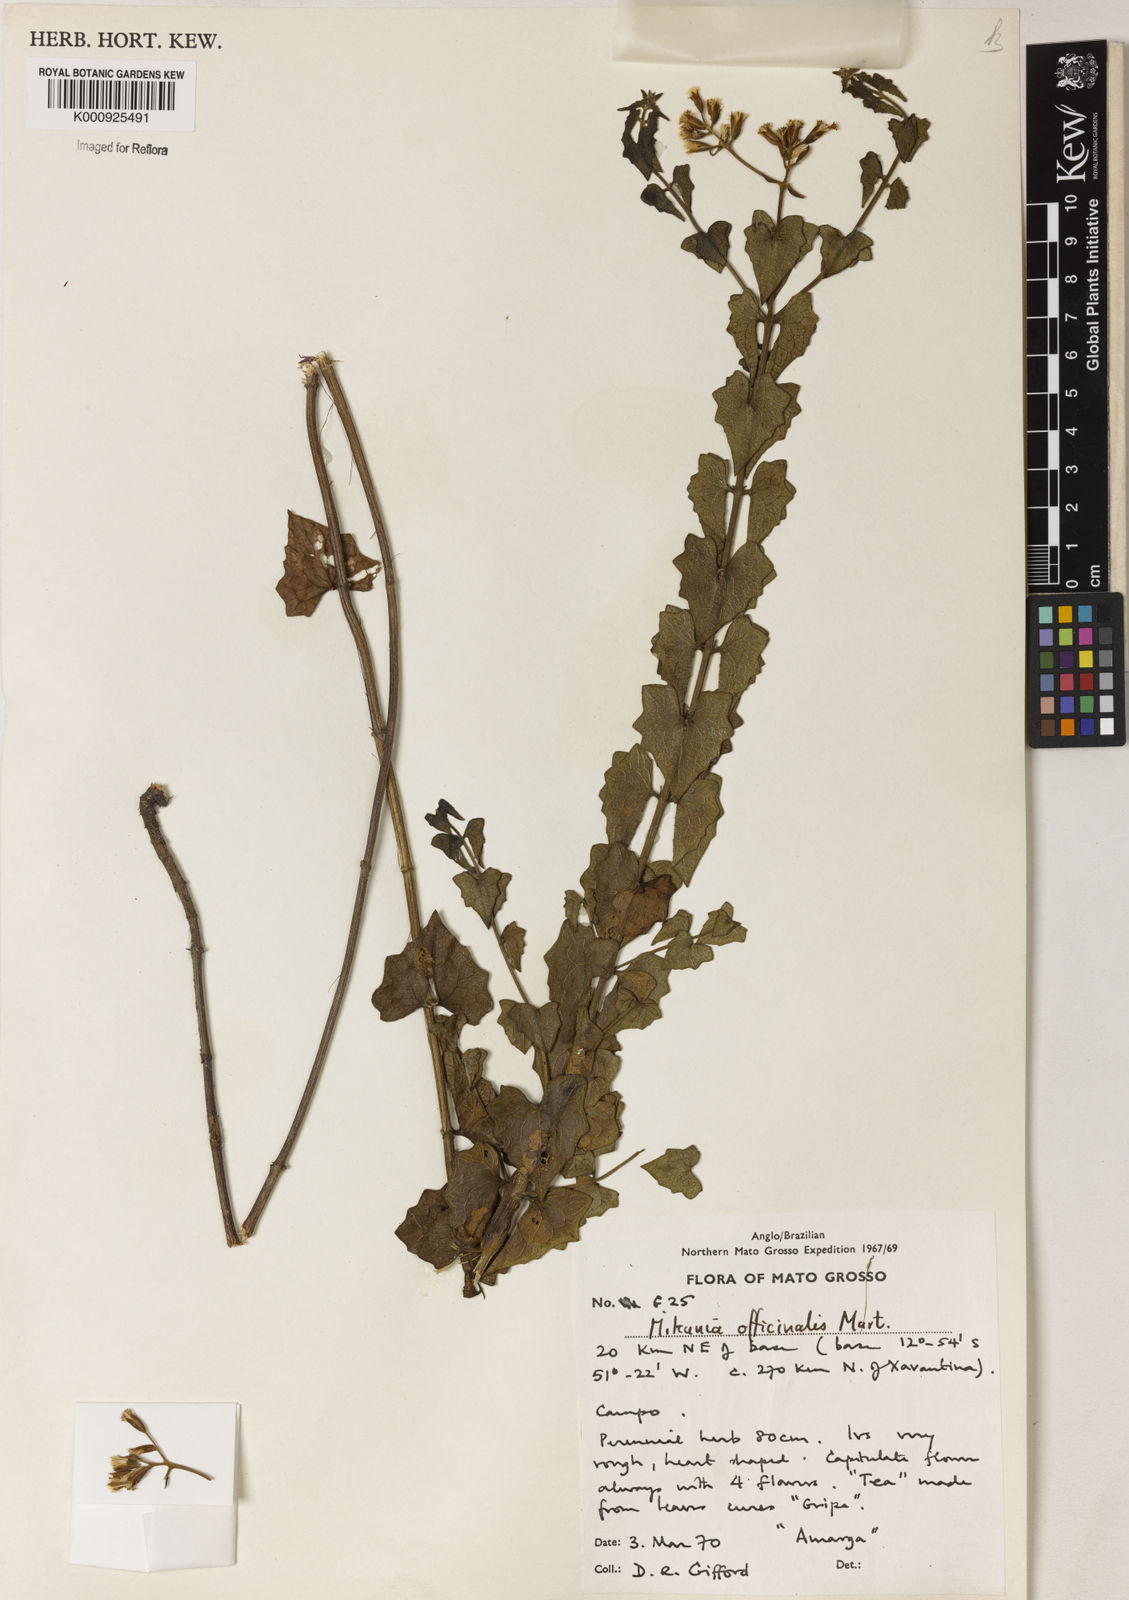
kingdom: Plantae
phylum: Tracheophyta
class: Magnoliopsida
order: Asterales
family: Asteraceae
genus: Mikania
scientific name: Mikania officinalis
